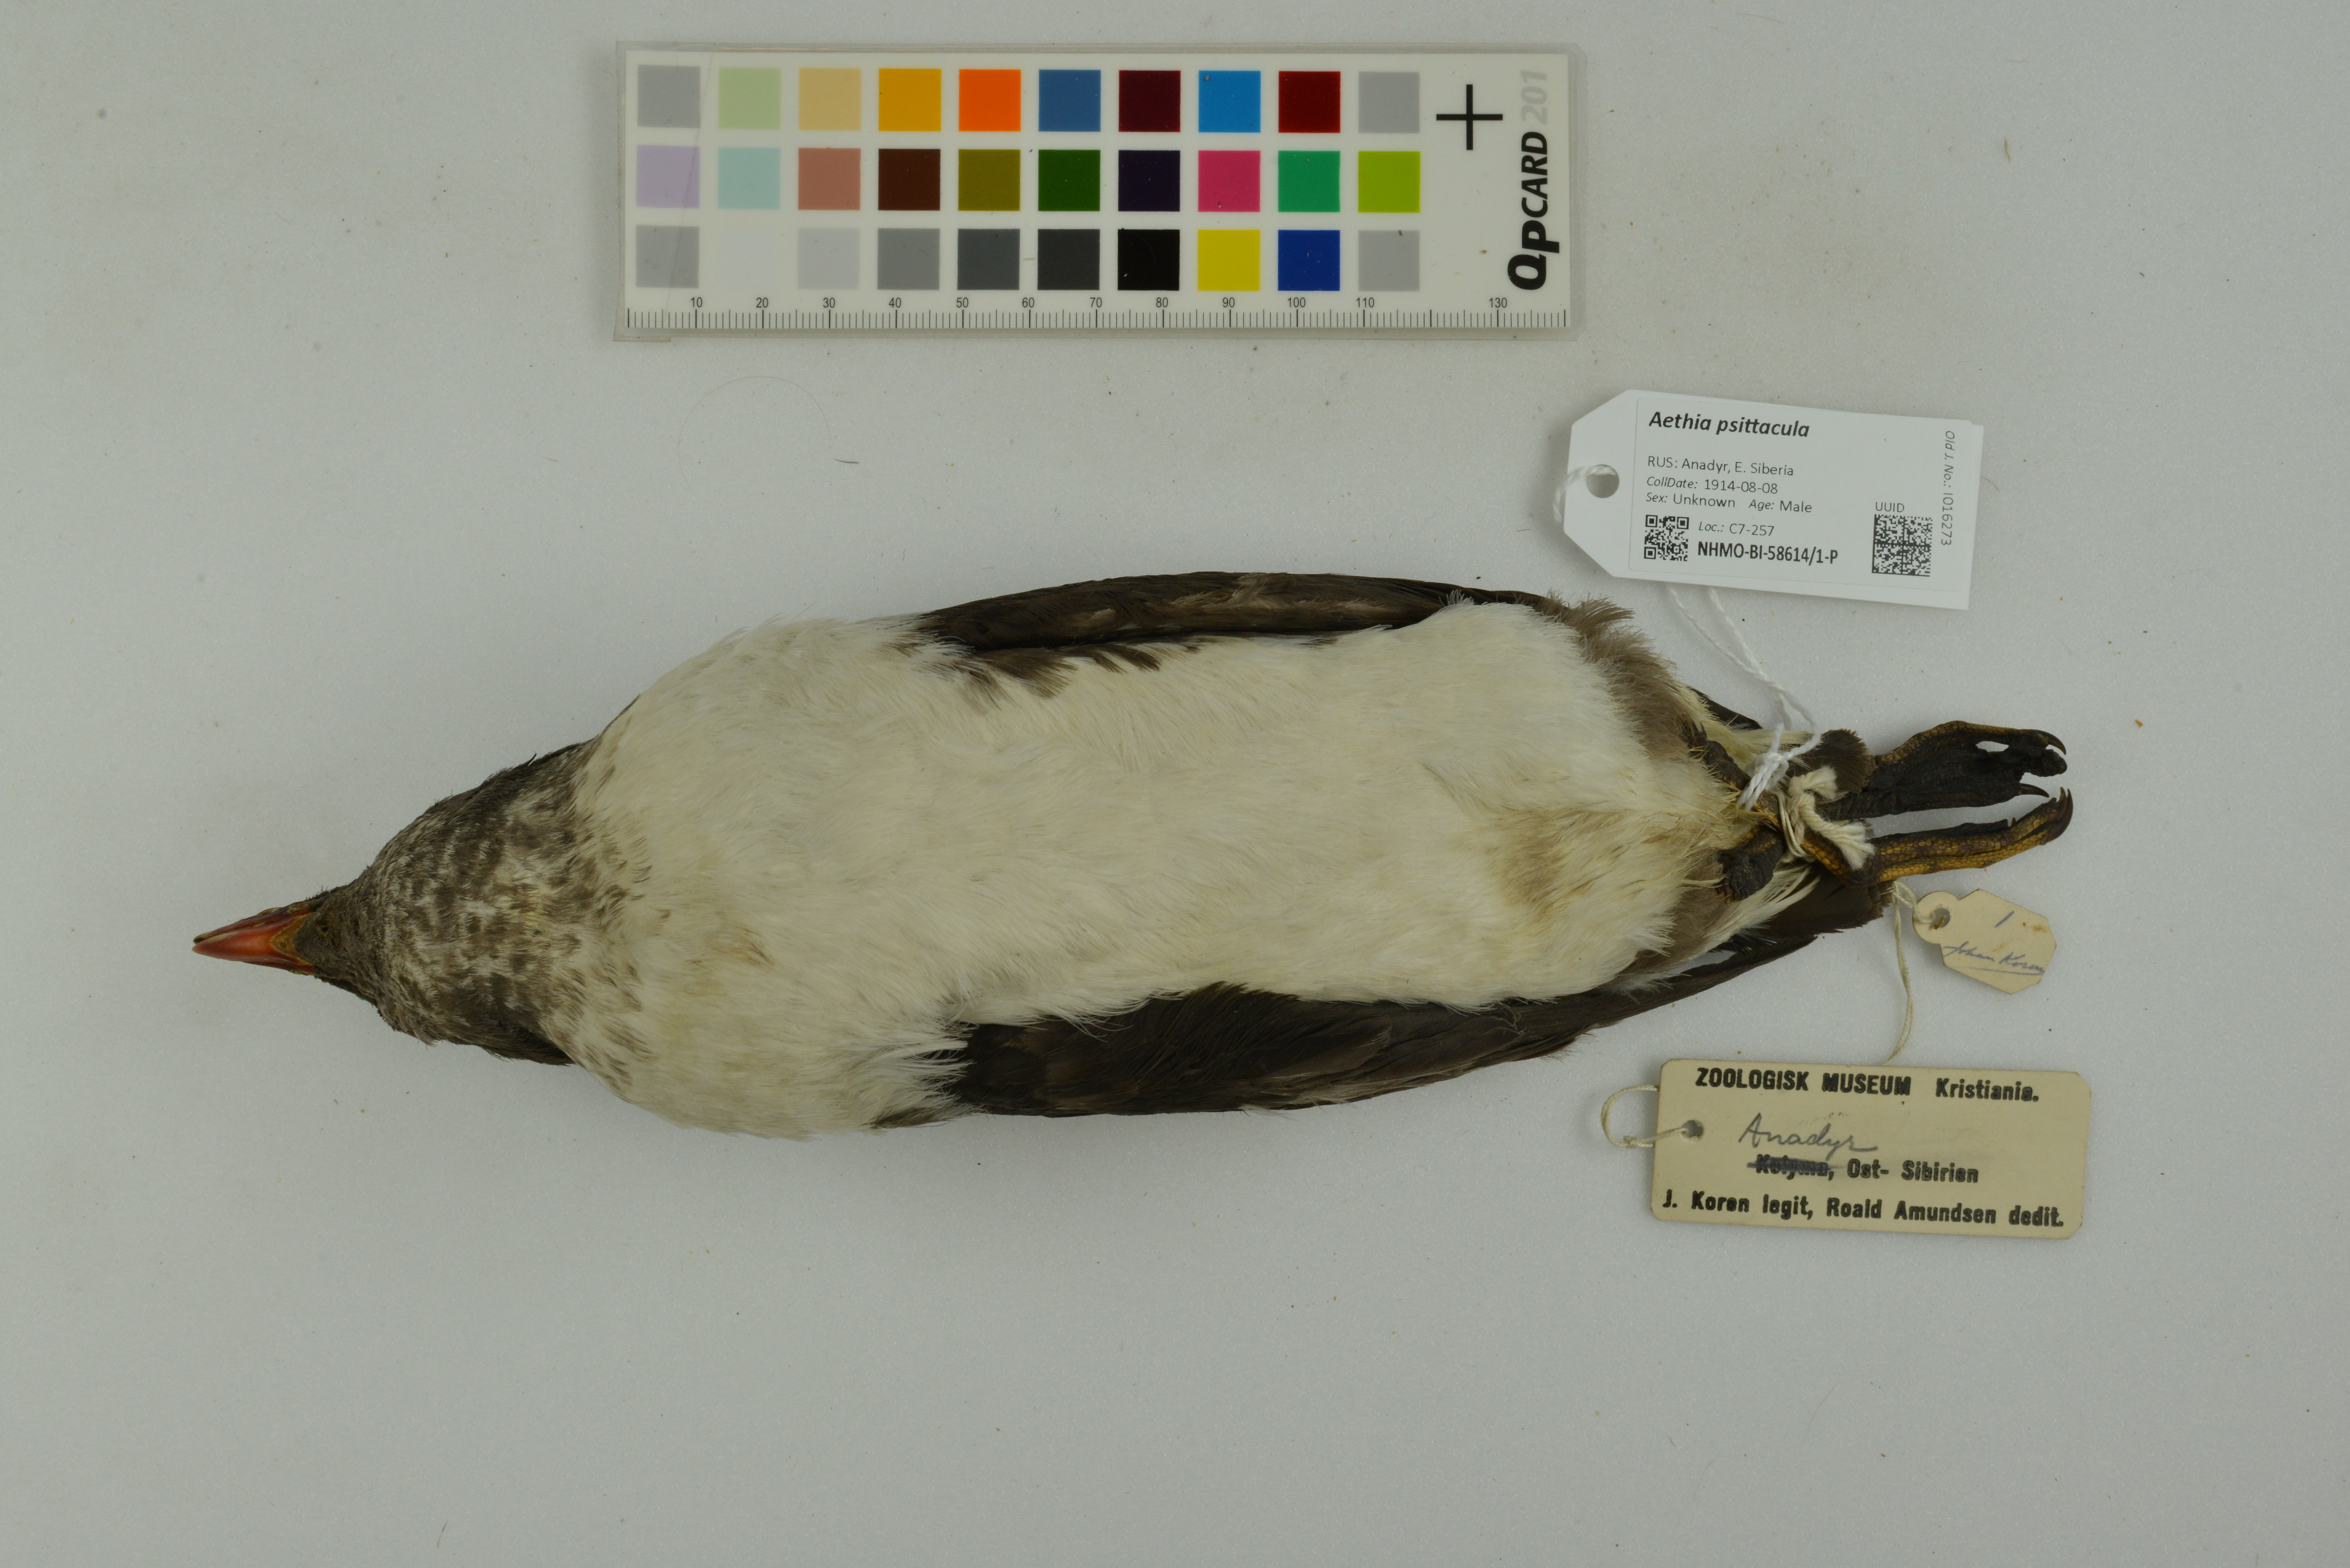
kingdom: Animalia
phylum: Chordata
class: Aves
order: Charadriiformes
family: Alcidae
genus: Aethia
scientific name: Aethia psittacula
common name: Parakeet auklet
